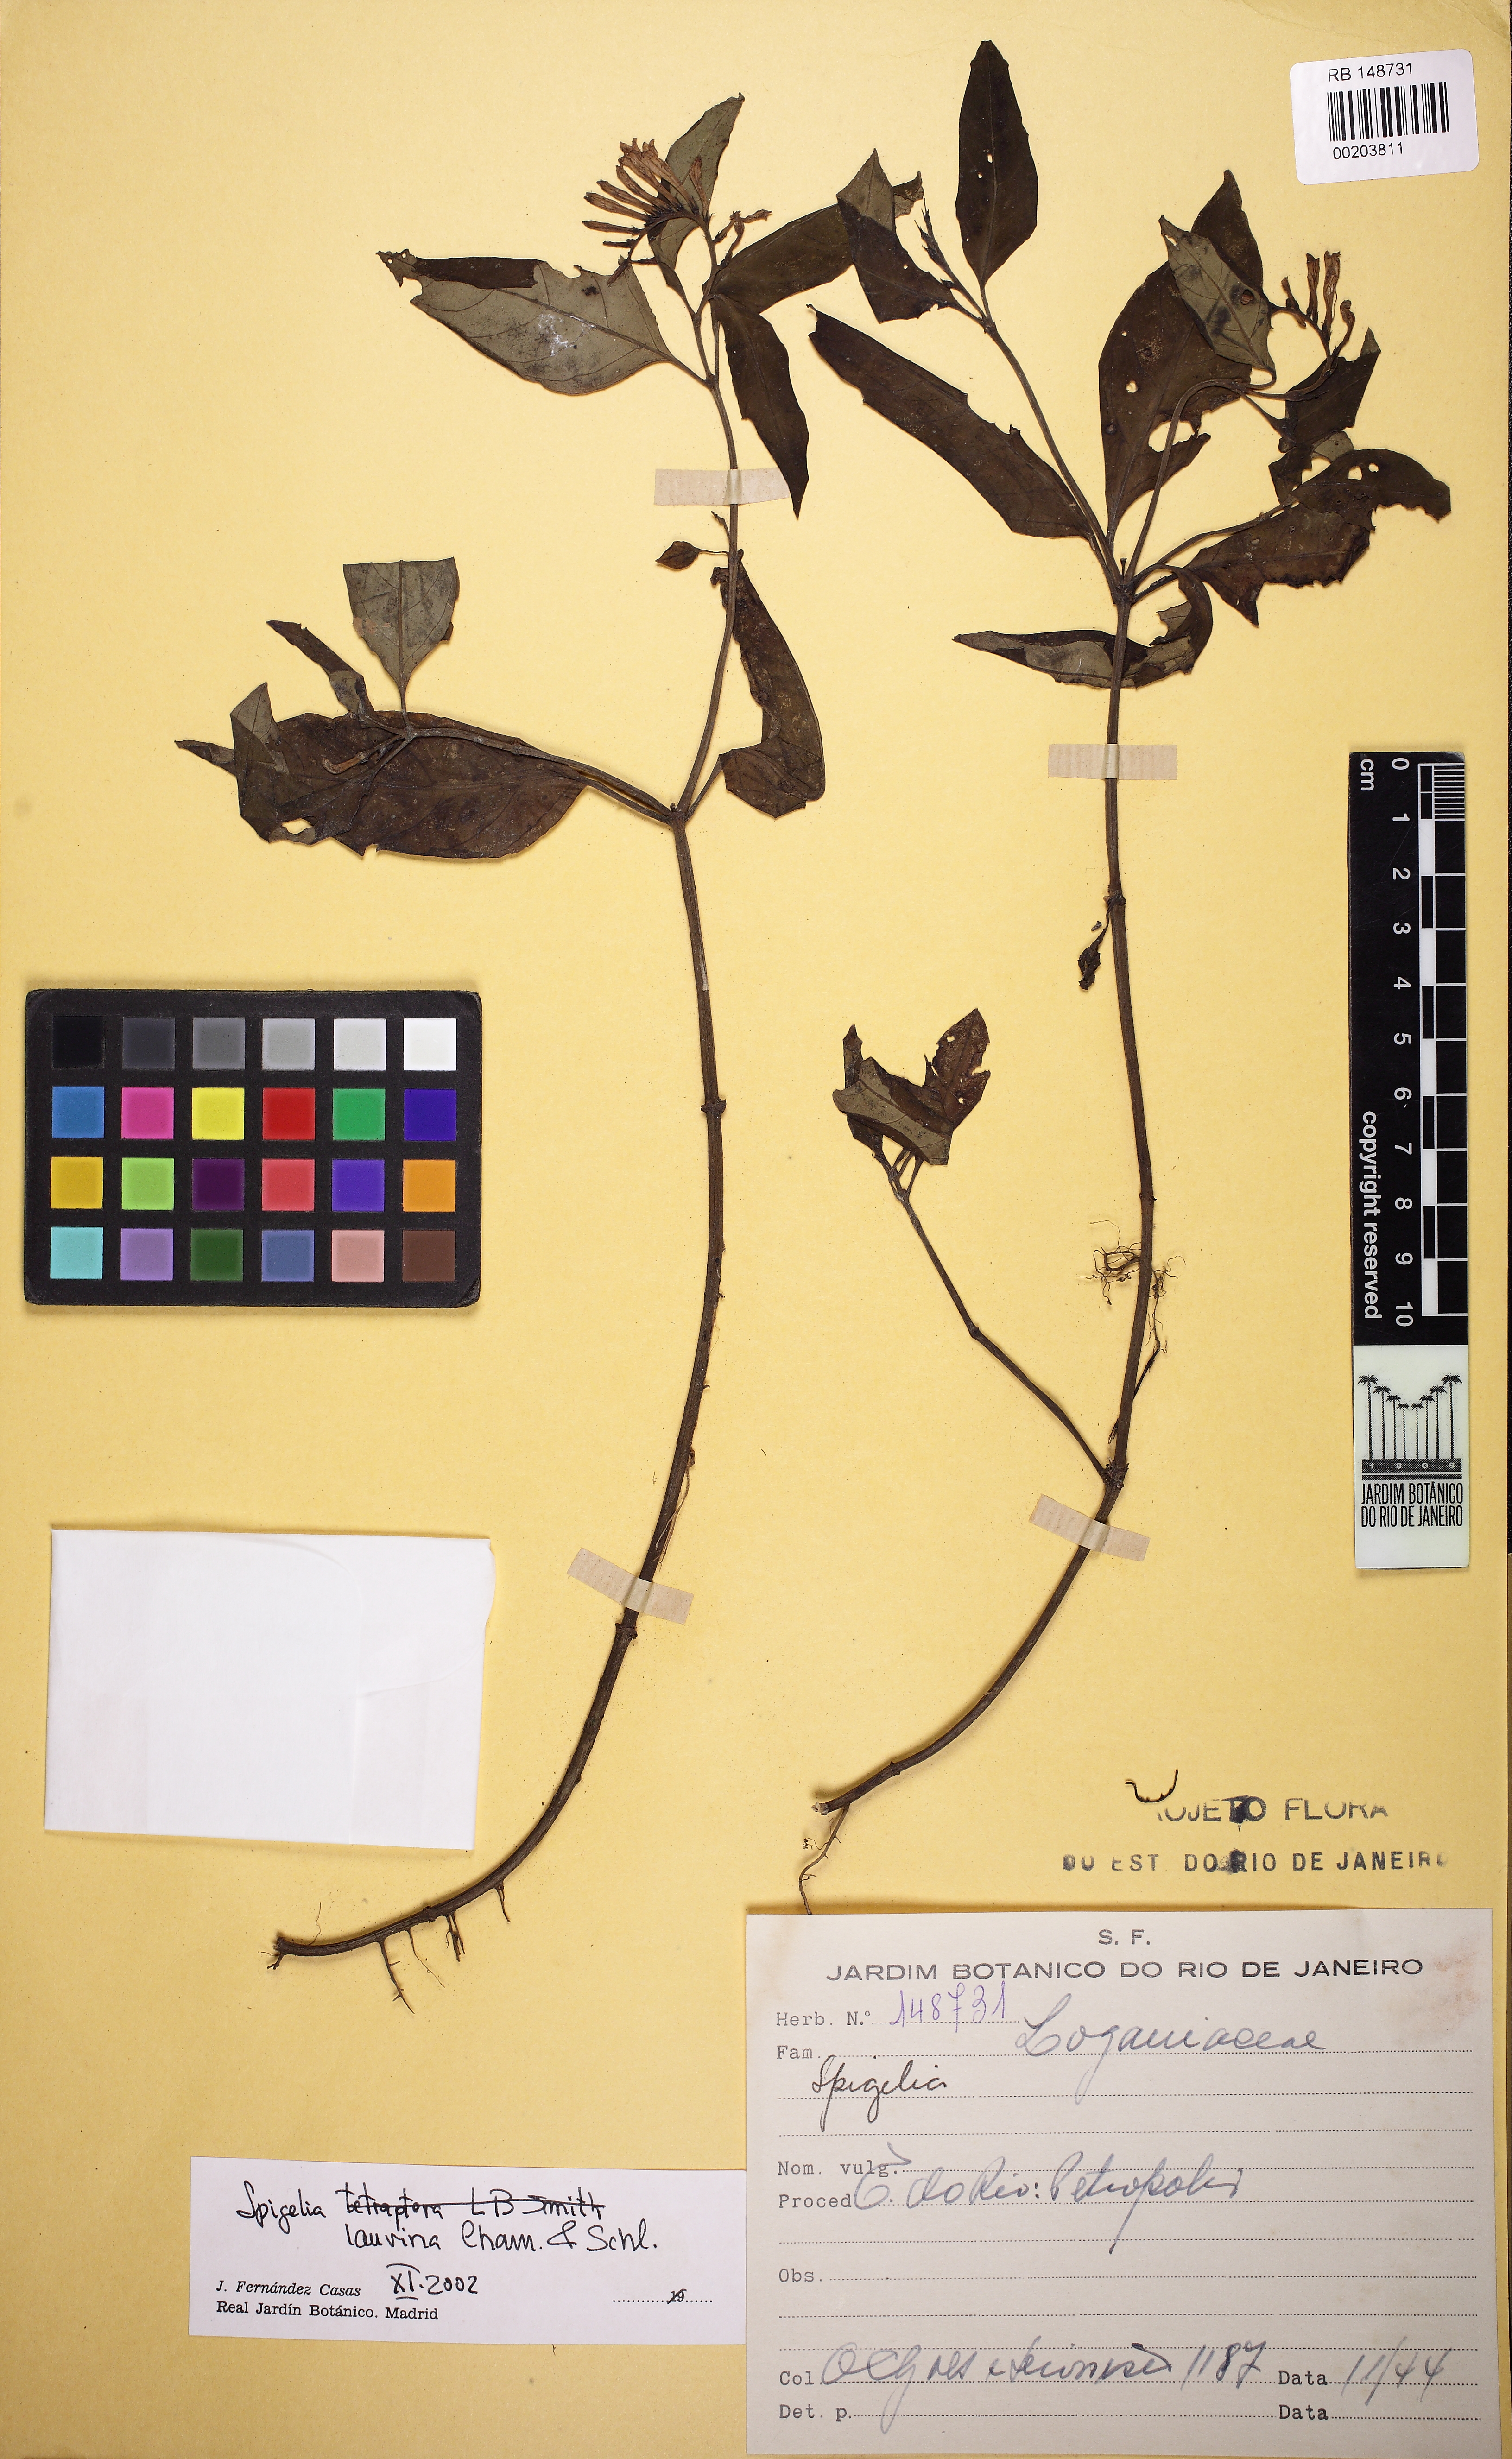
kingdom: Plantae
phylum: Tracheophyta
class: Magnoliopsida
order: Gentianales
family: Loganiaceae
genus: Spigelia
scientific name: Spigelia laurina
